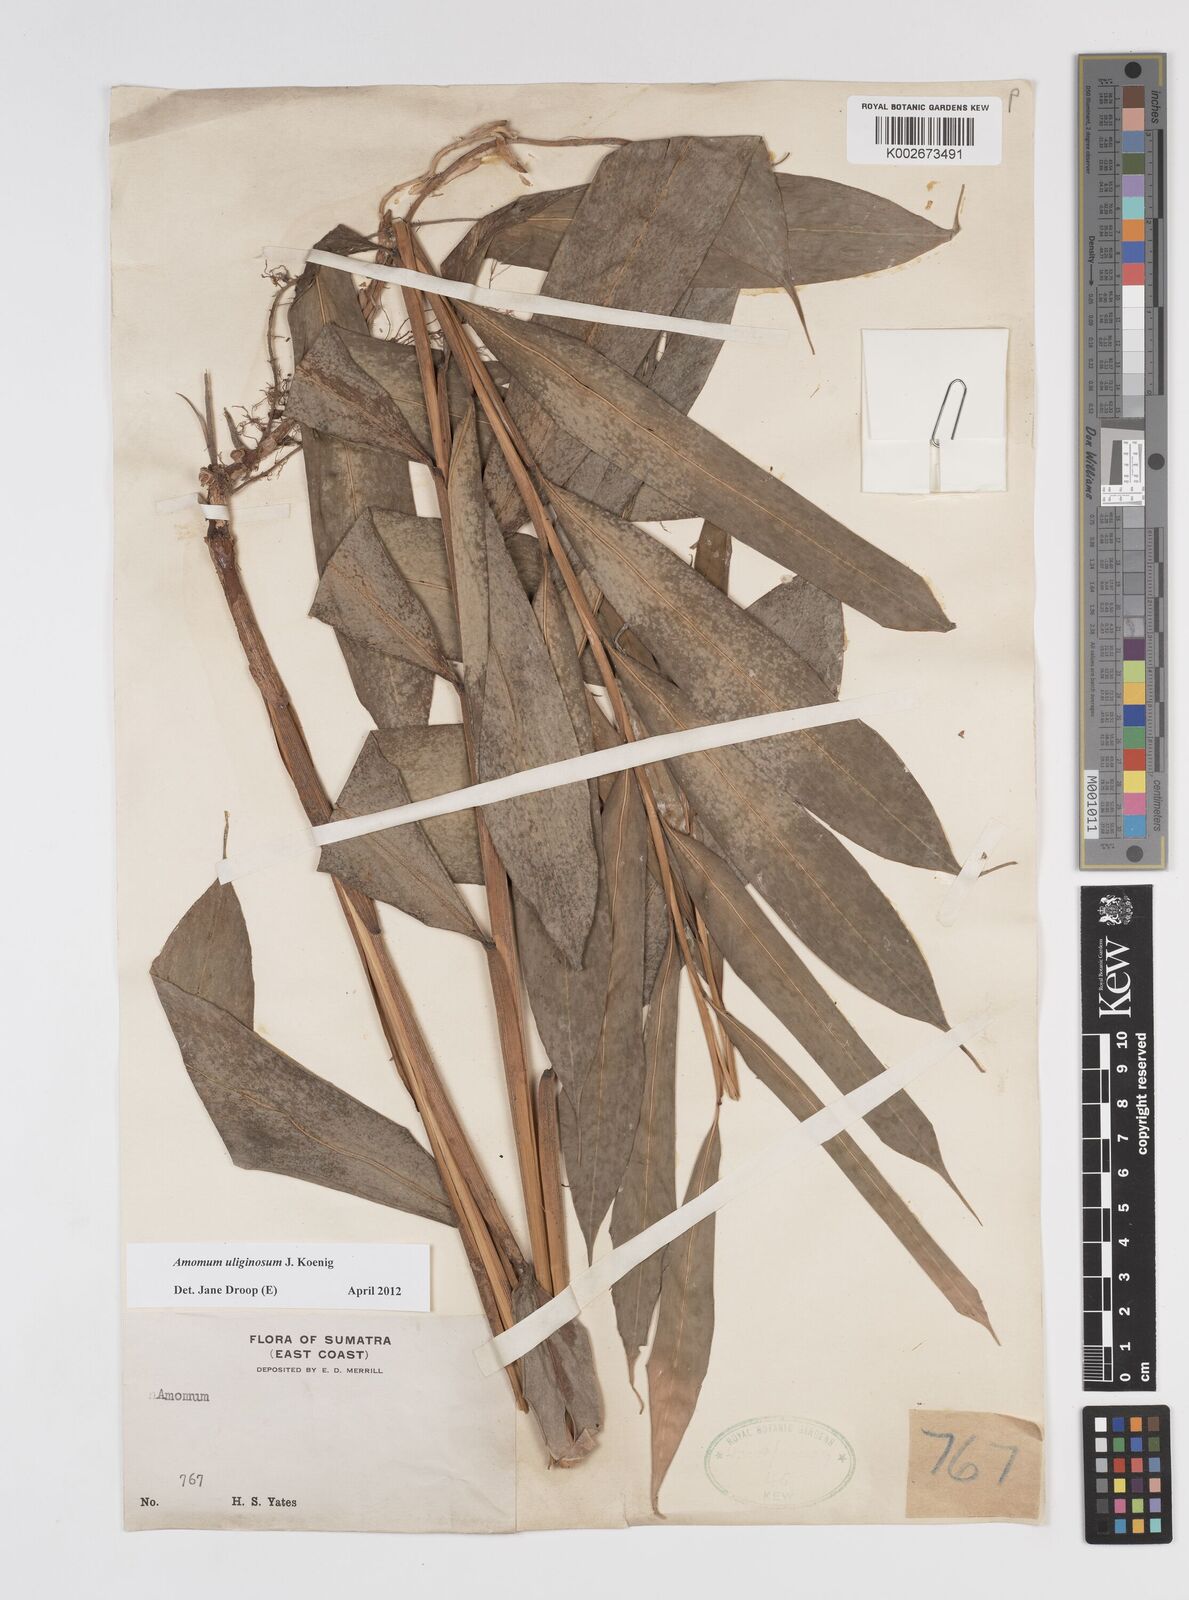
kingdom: Plantae
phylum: Tracheophyta
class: Liliopsida
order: Zingiberales
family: Zingiberaceae
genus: Wurfbainia
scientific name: Wurfbainia uliginosa
